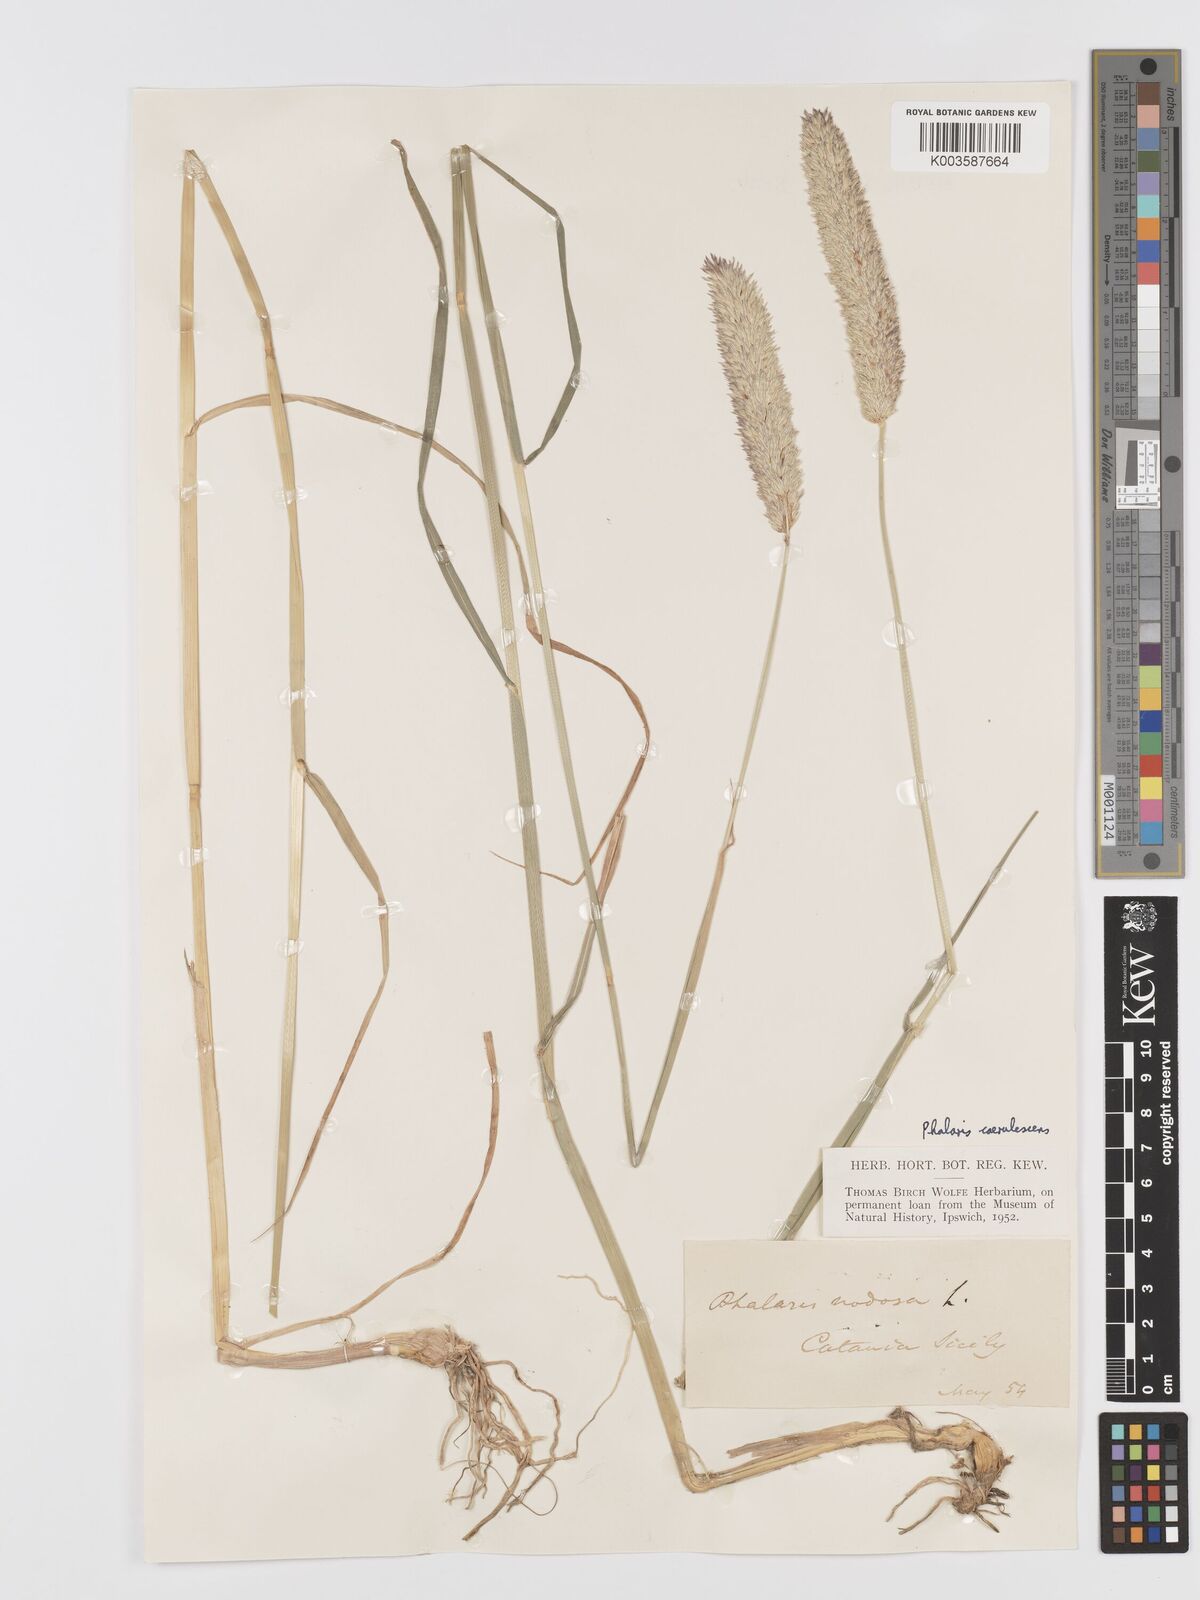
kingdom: Plantae
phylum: Tracheophyta
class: Liliopsida
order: Poales
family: Poaceae
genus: Phalaris
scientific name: Phalaris coerulescens
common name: Sunolgrass
